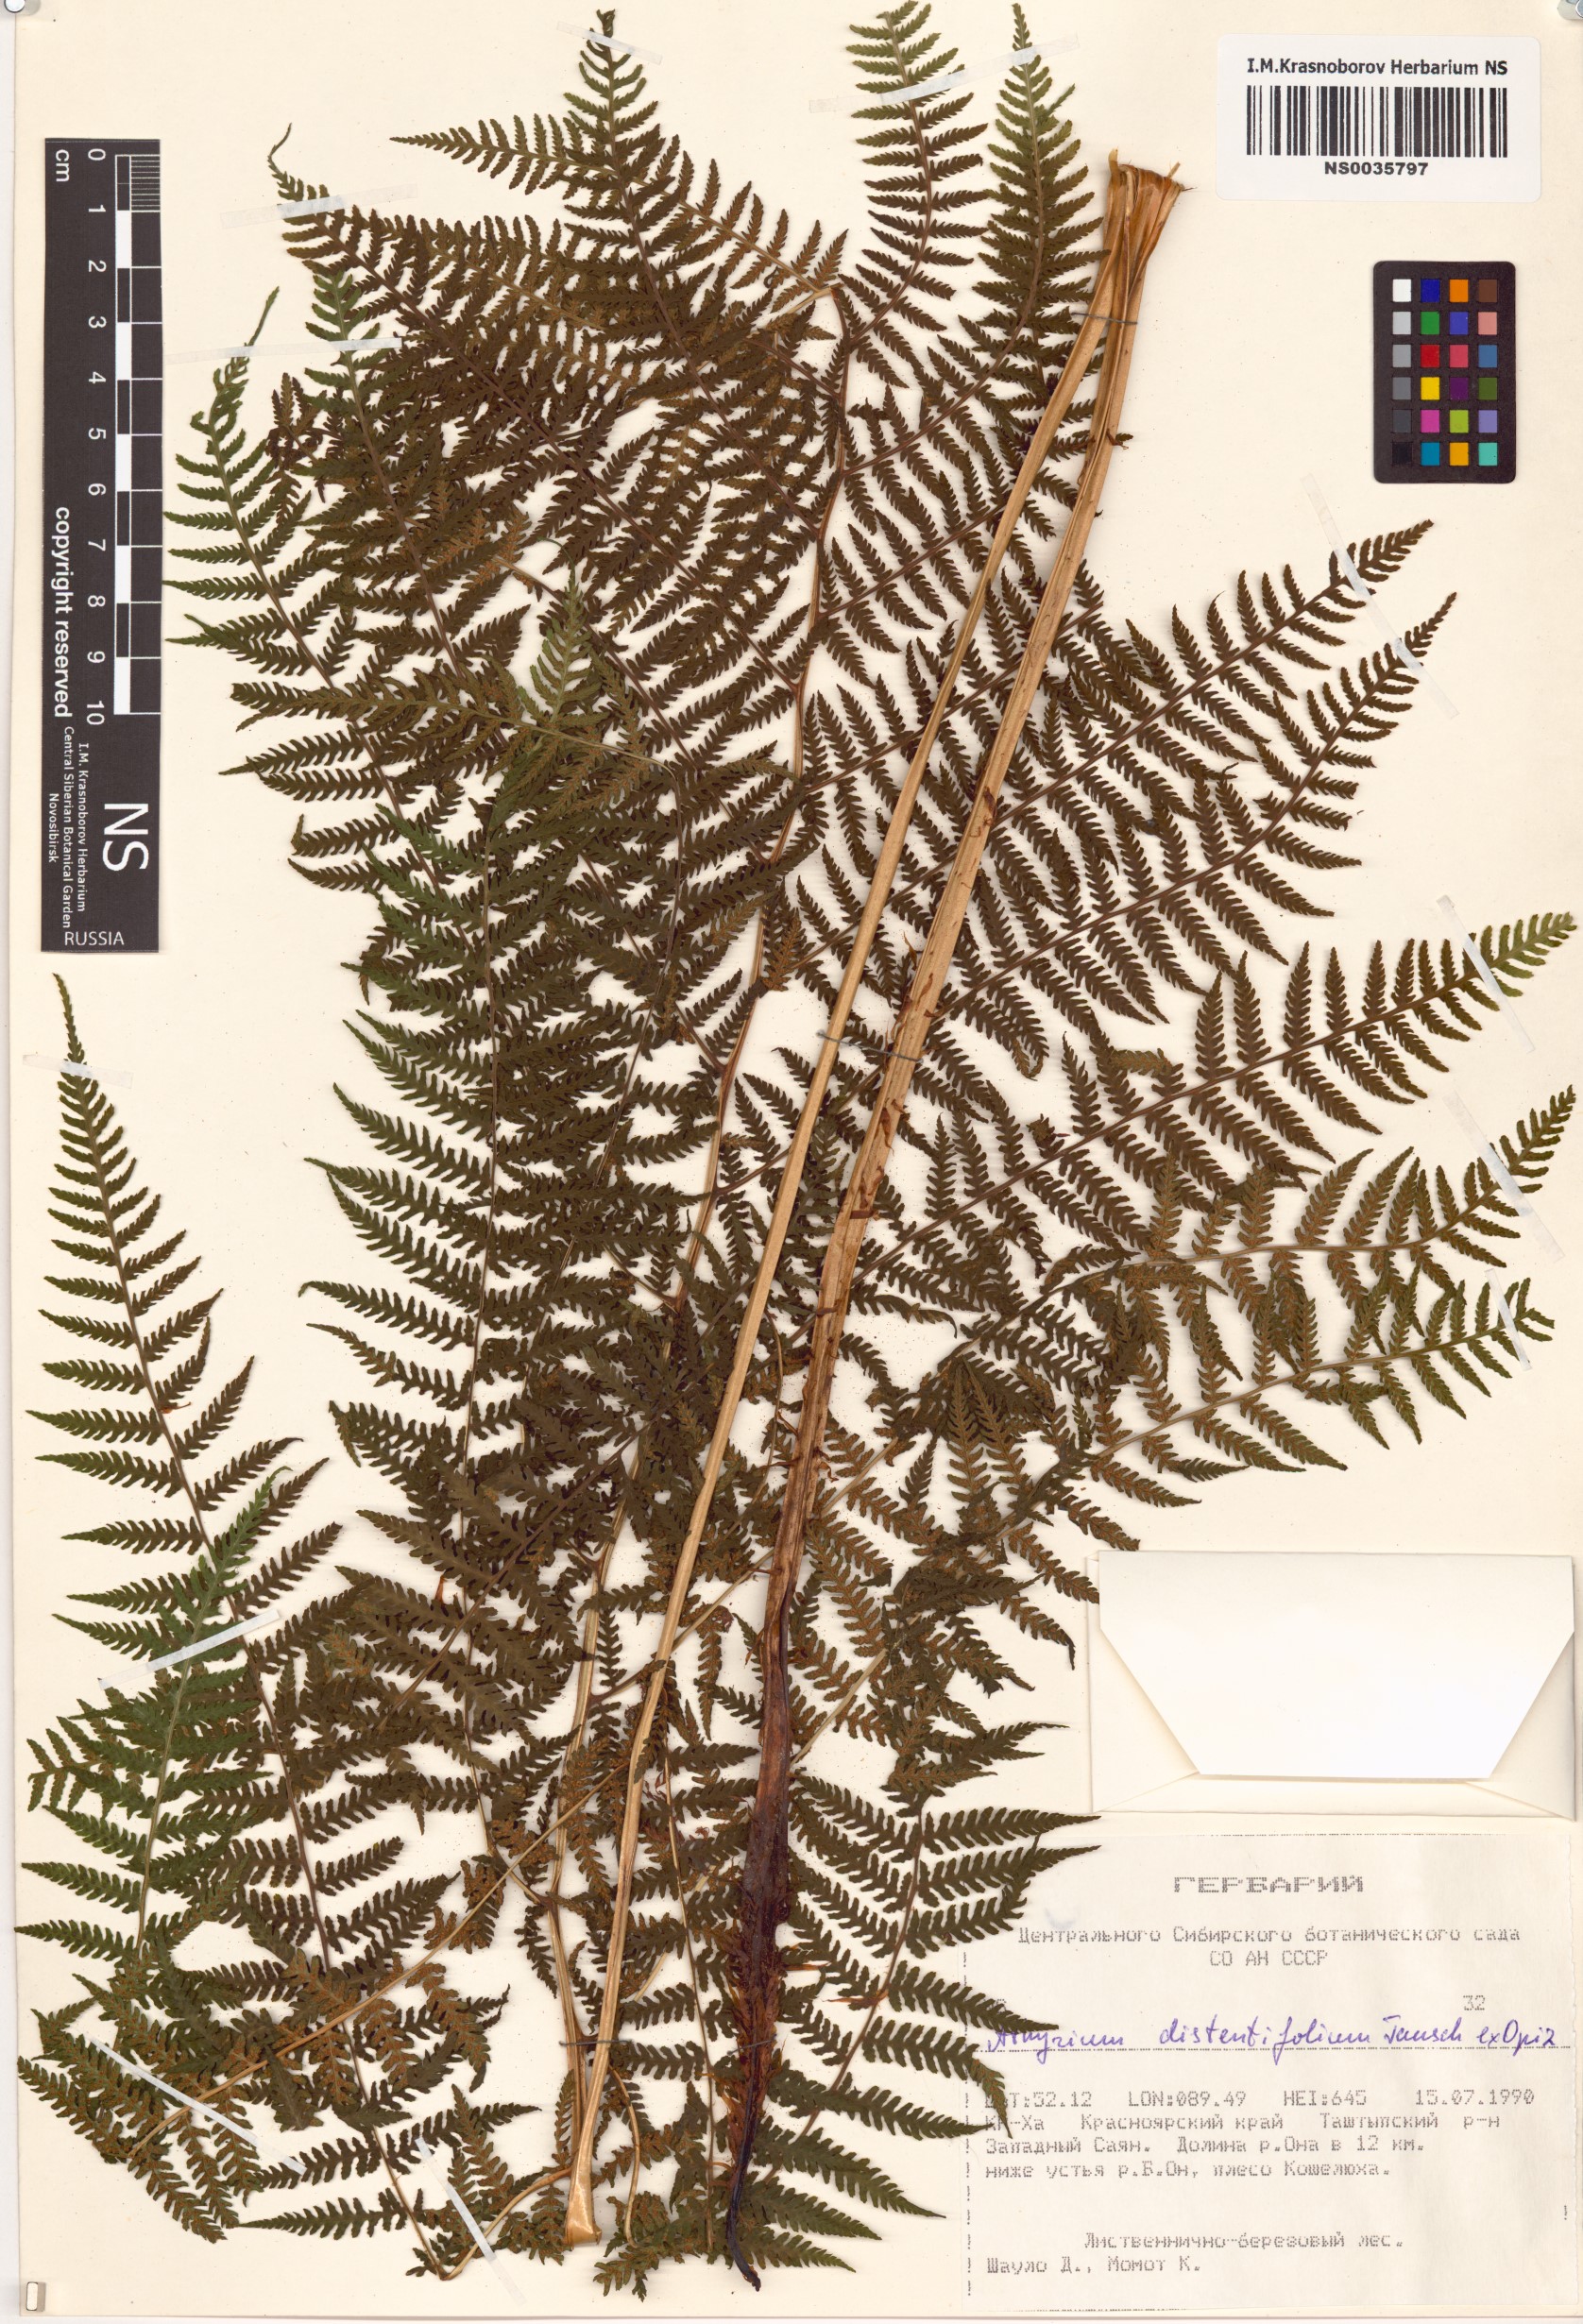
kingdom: Plantae
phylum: Tracheophyta
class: Polypodiopsida
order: Polypodiales
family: Athyriaceae
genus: Pseudathyrium
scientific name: Pseudathyrium alpestre
